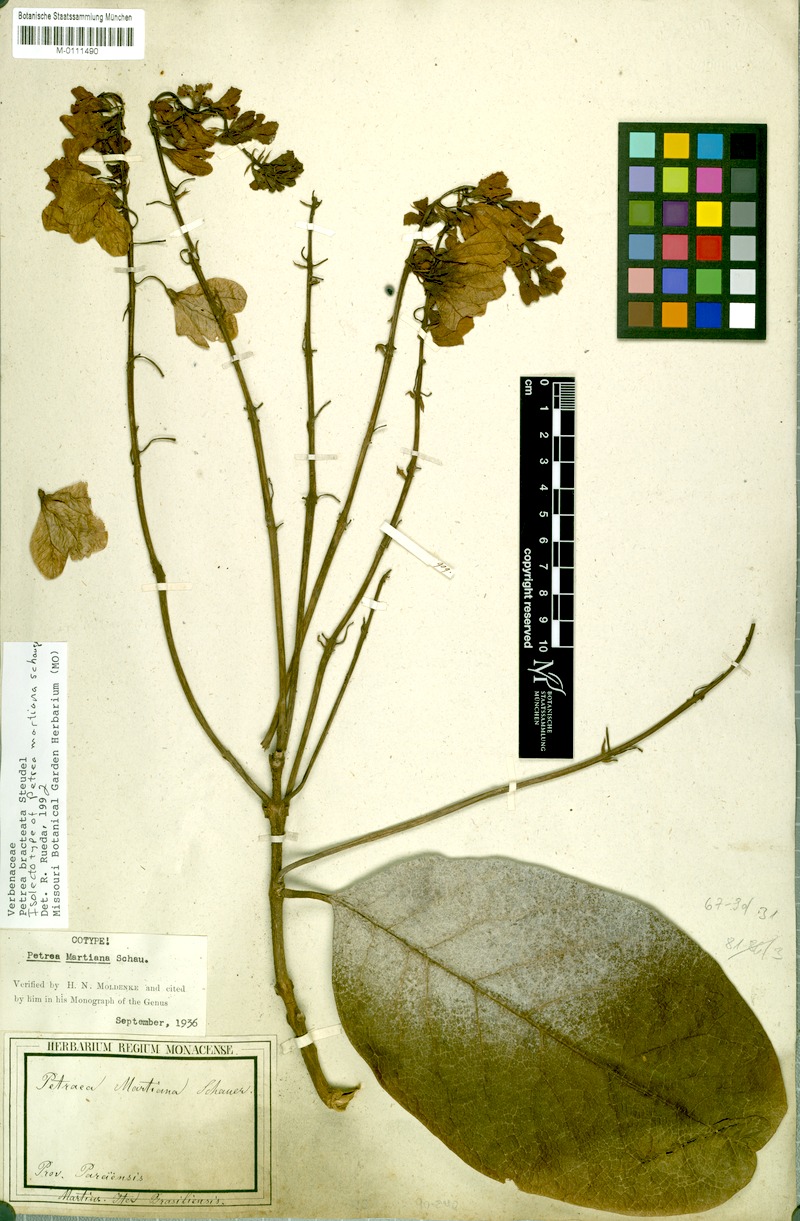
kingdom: Plantae
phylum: Tracheophyta
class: Magnoliopsida
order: Lamiales
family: Verbenaceae
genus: Petrea
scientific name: Petrea bracteata
